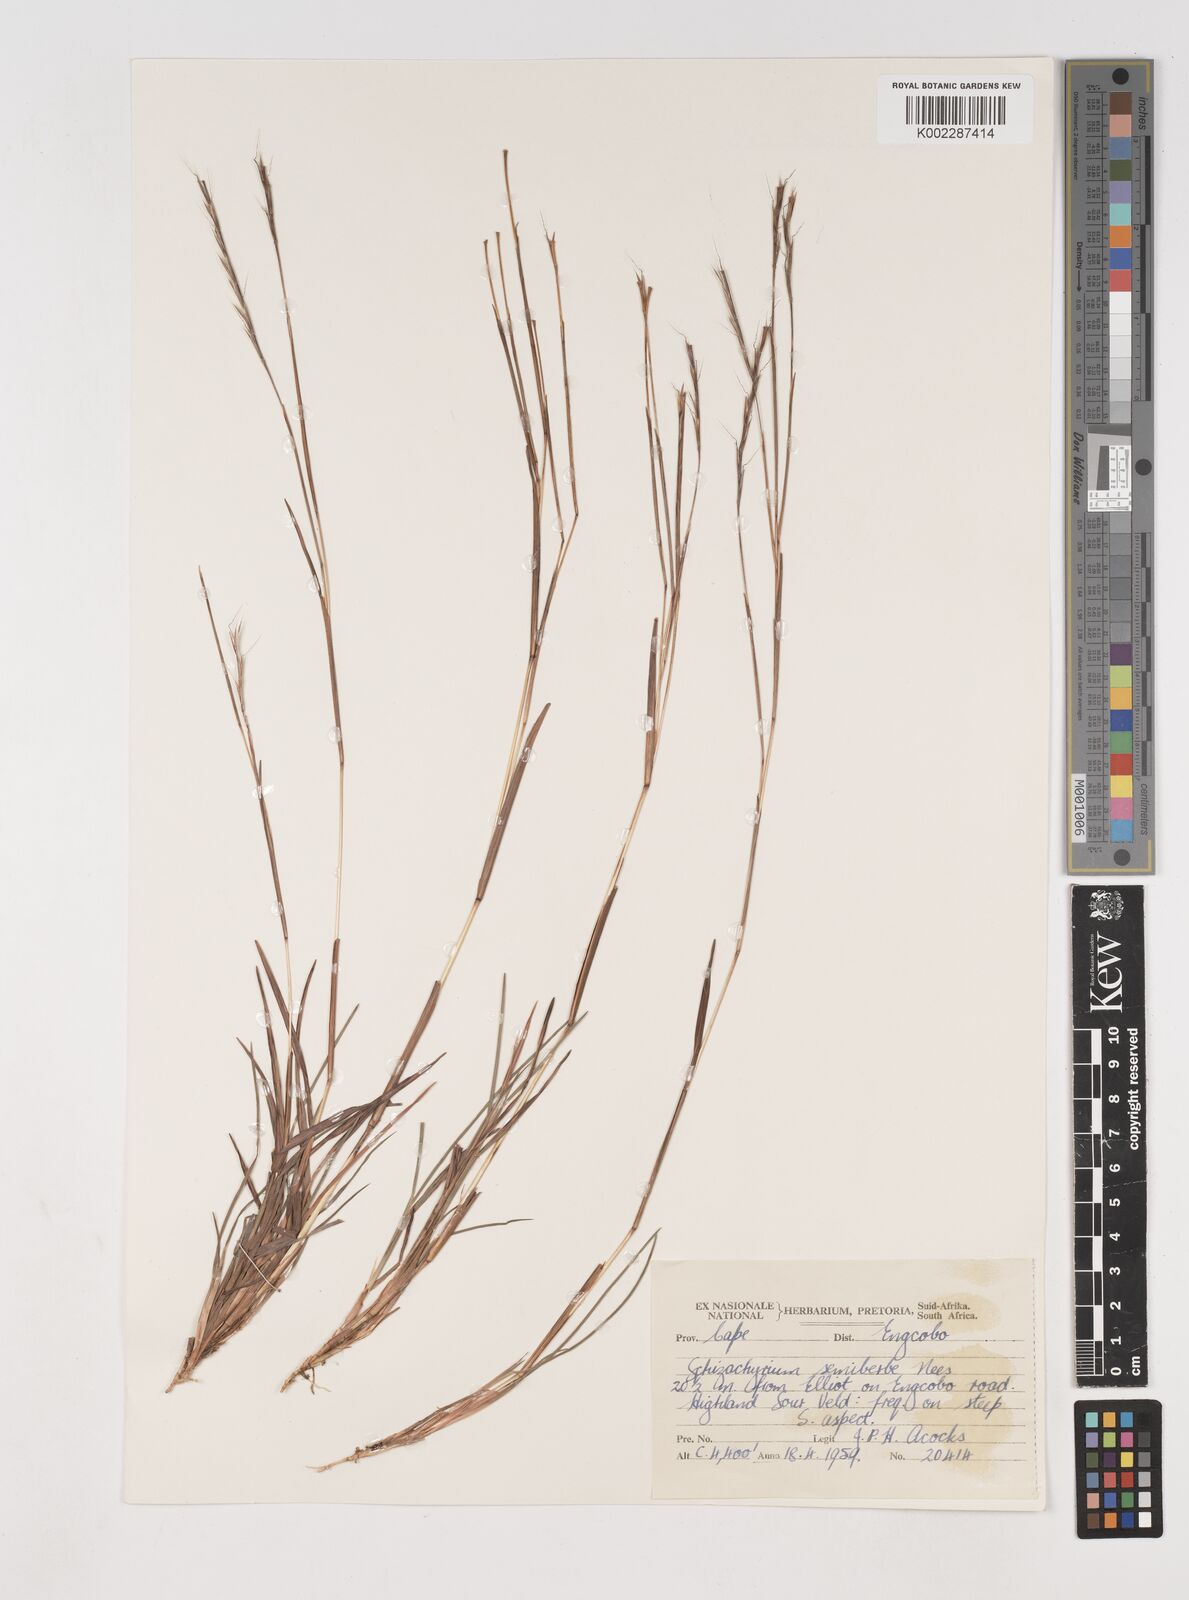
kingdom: Plantae
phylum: Tracheophyta
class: Liliopsida
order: Poales
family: Poaceae
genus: Schizachyrium
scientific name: Schizachyrium sanguineum
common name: Crimson bluestem
